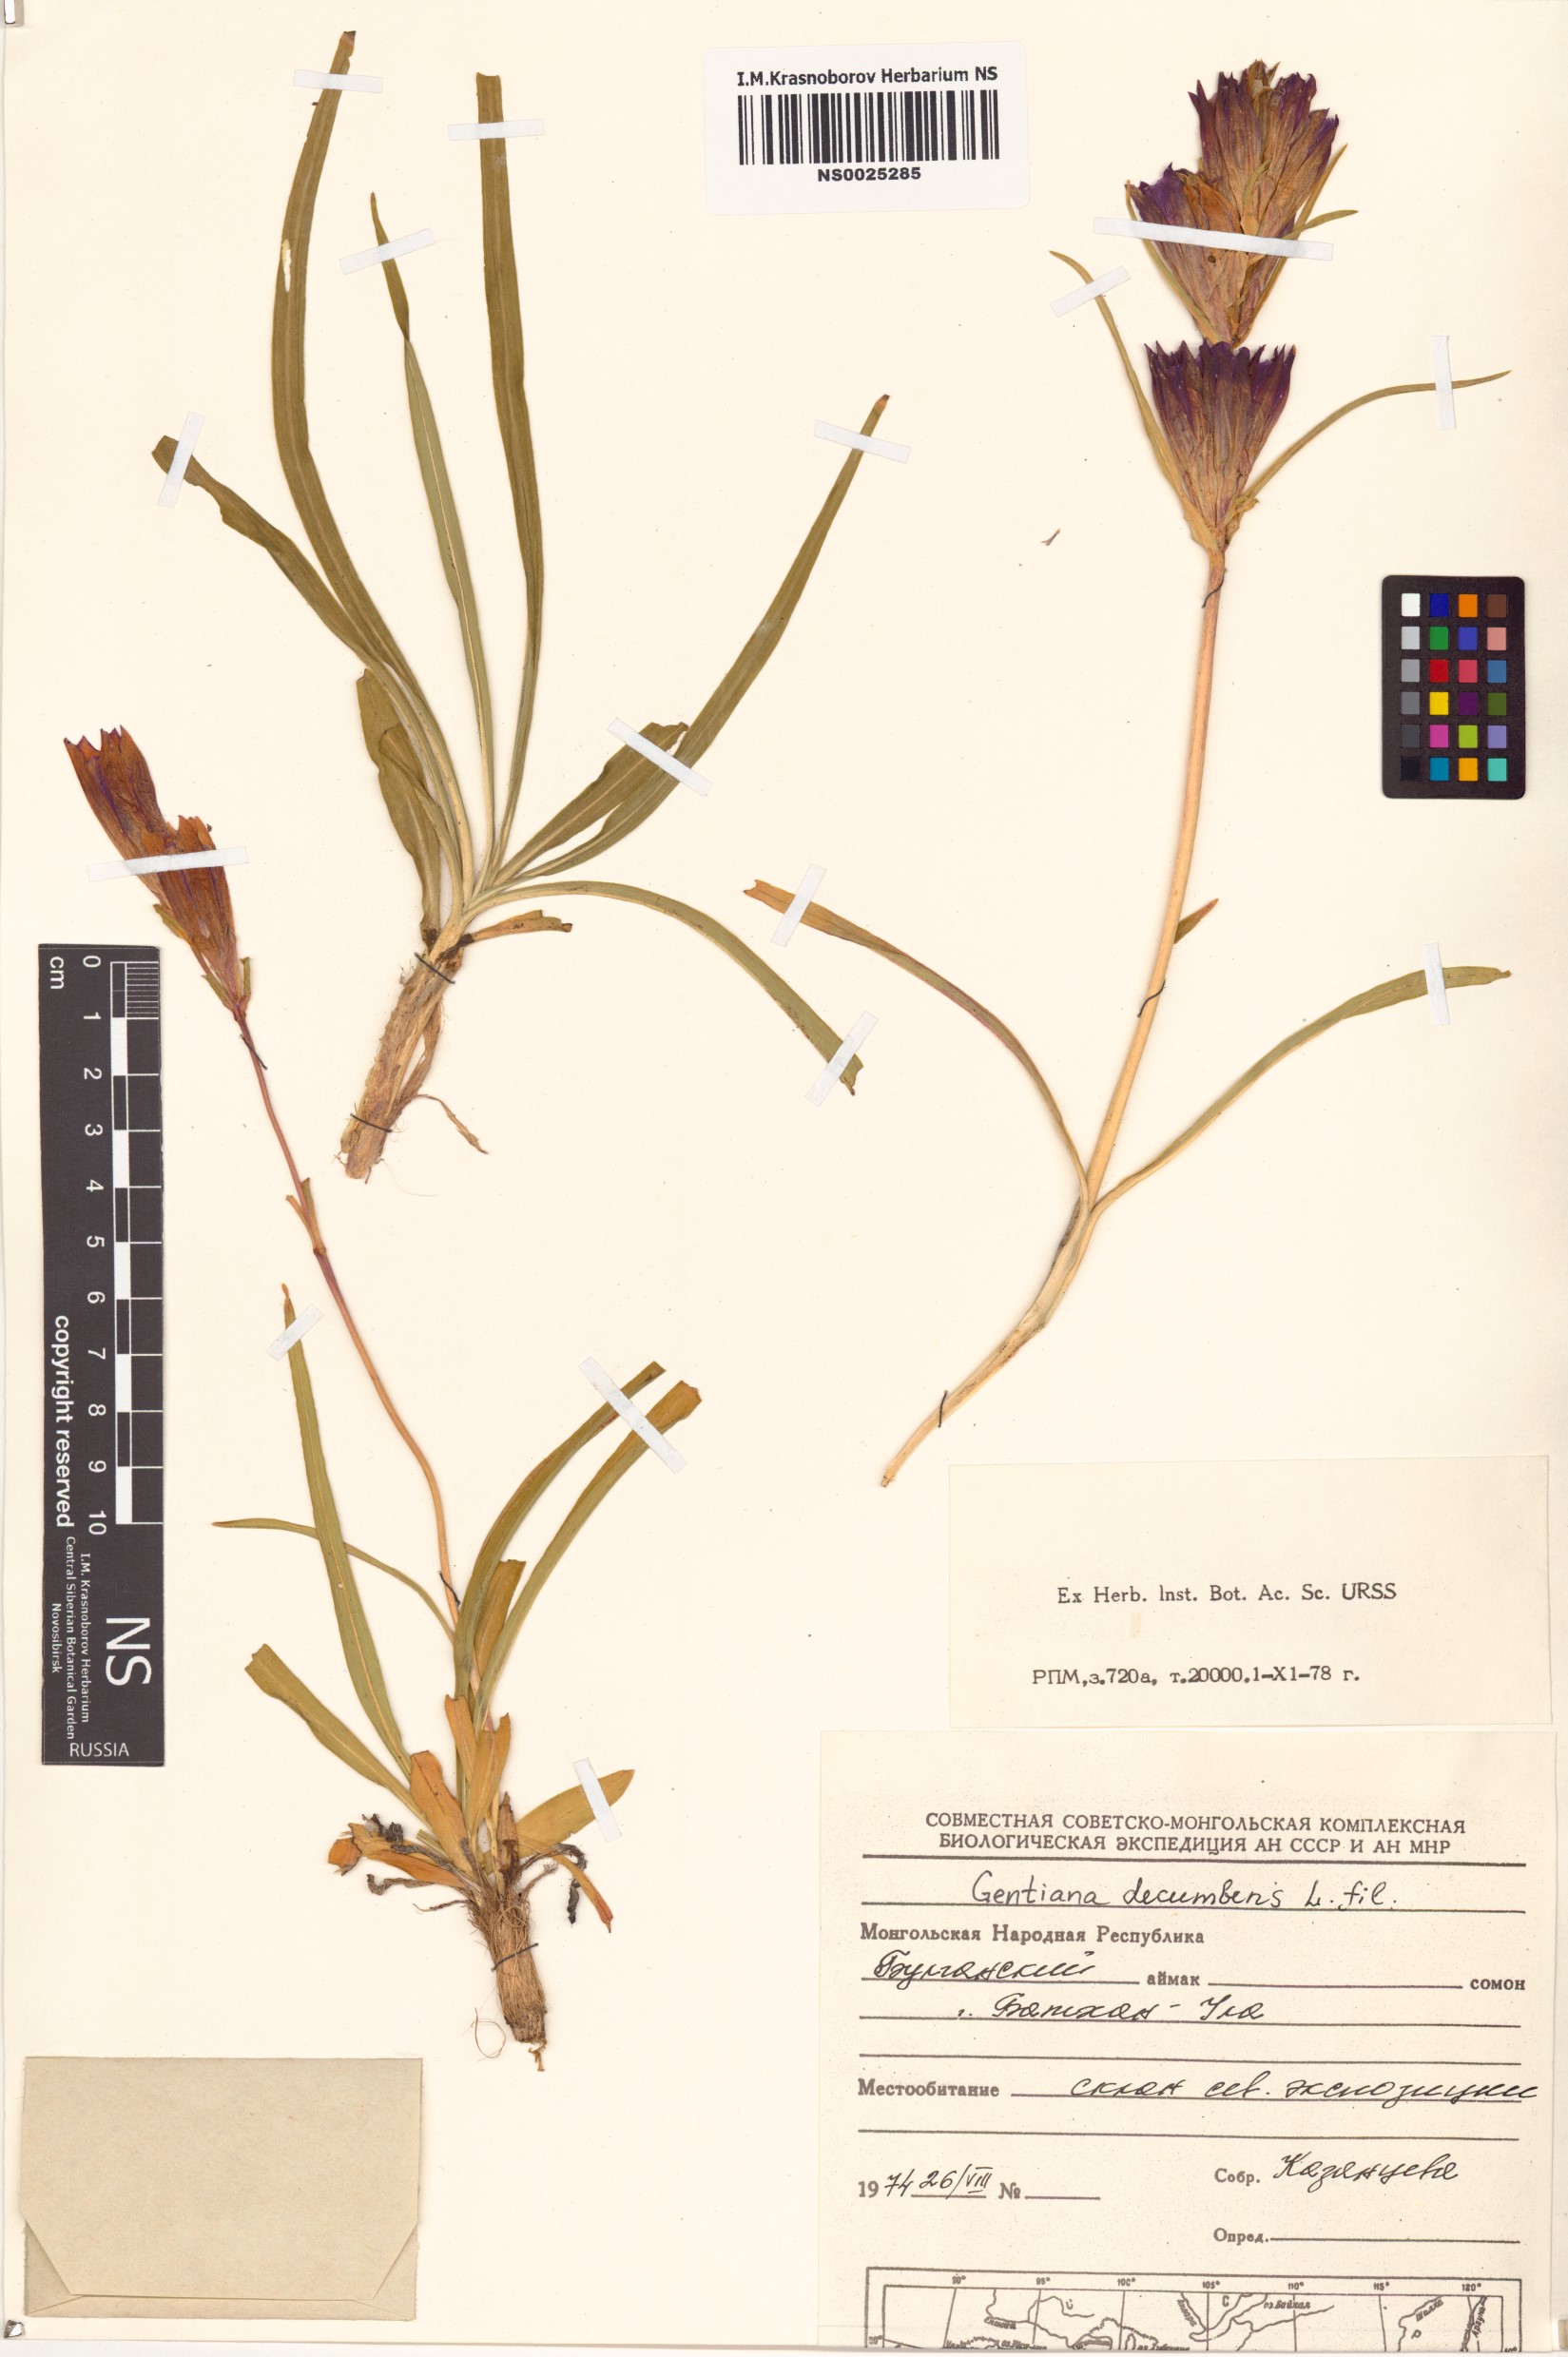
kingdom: Plantae
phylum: Tracheophyta
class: Magnoliopsida
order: Gentianales
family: Gentianaceae
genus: Gentiana
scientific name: Gentiana decumbens
